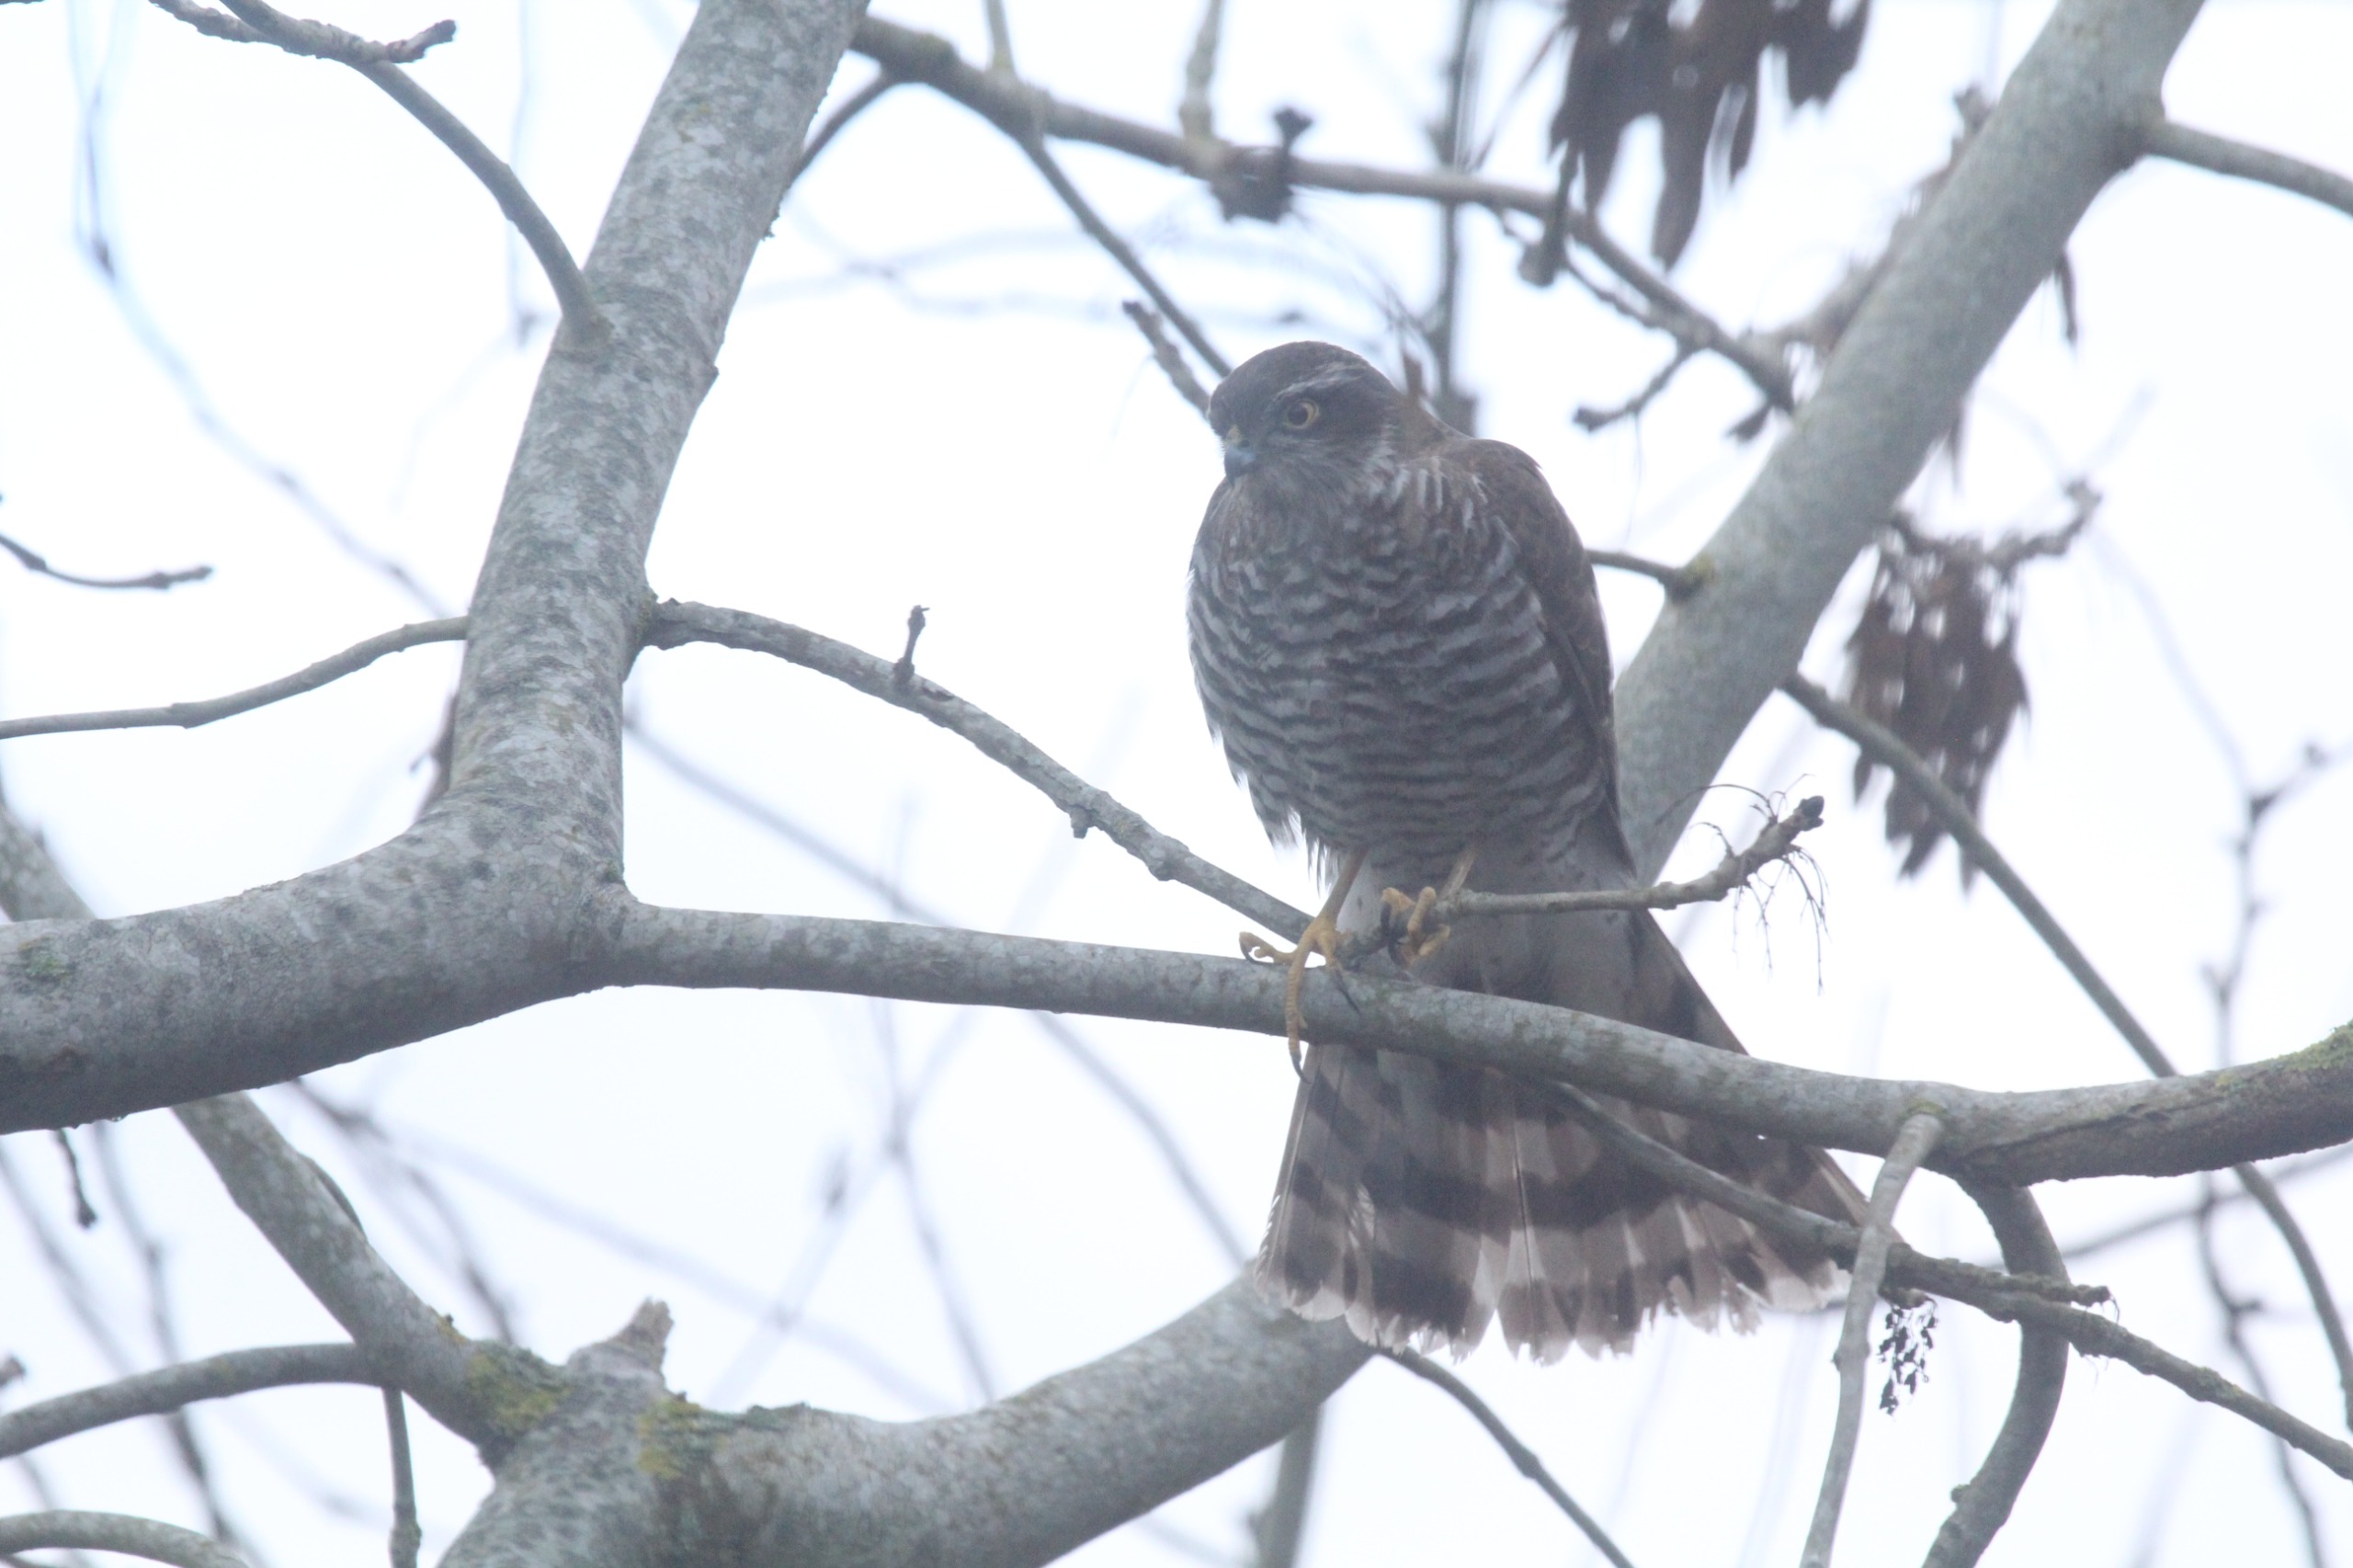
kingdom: Animalia
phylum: Chordata
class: Aves
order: Accipitriformes
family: Accipitridae
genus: Accipiter
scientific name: Accipiter nisus
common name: Spurvehøg
